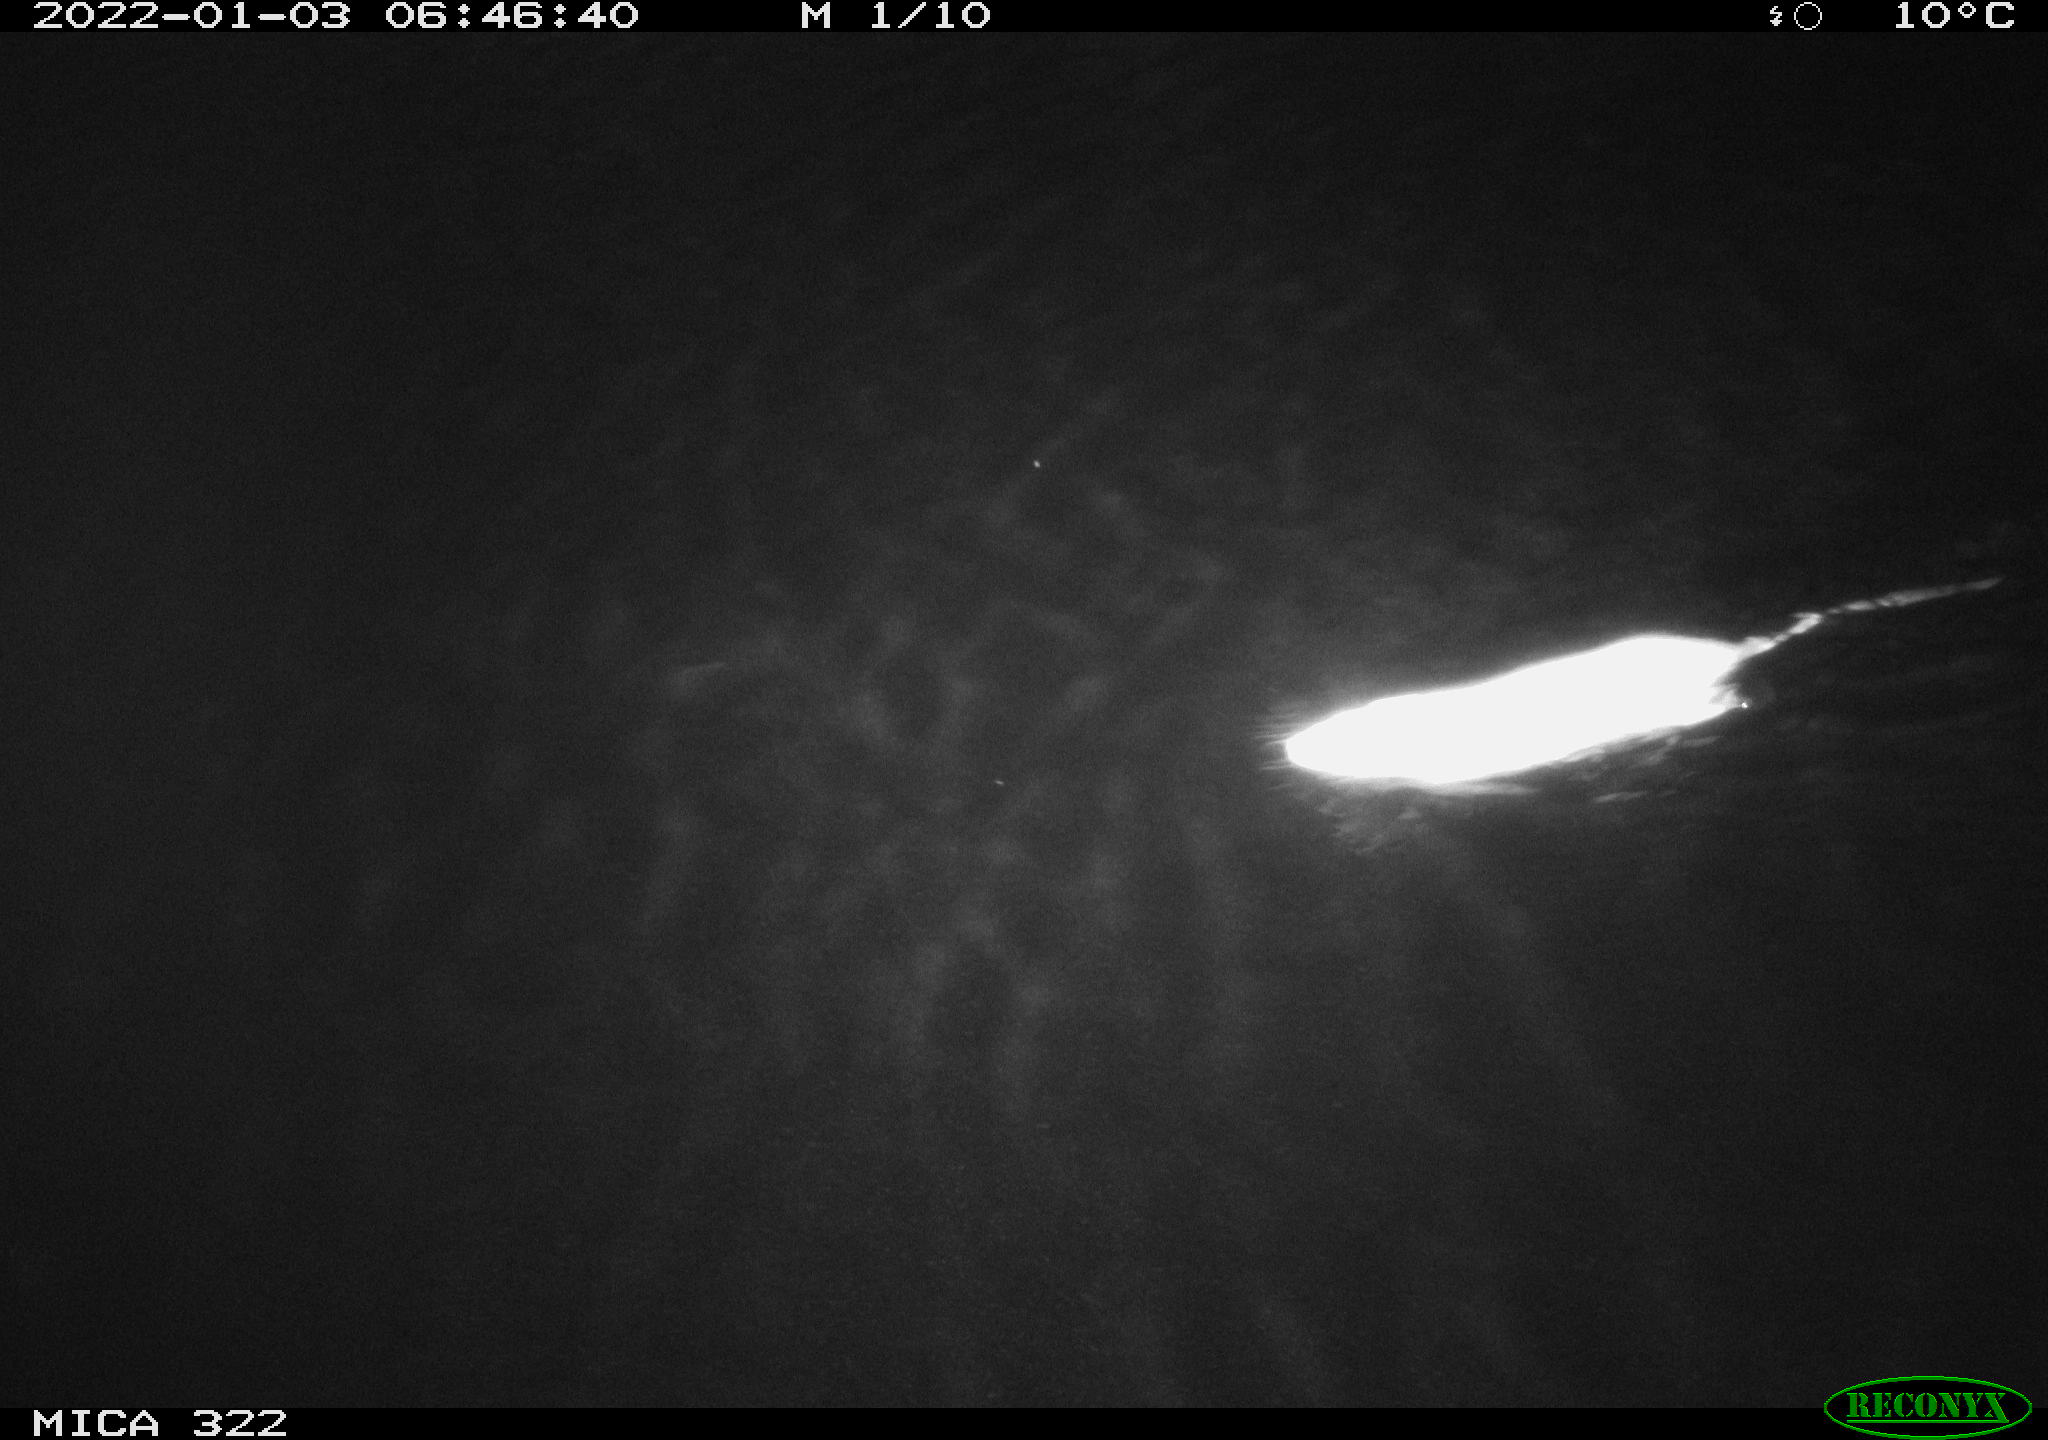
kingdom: Animalia
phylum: Chordata
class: Mammalia
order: Rodentia
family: Muridae
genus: Rattus
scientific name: Rattus norvegicus
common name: Brown rat
